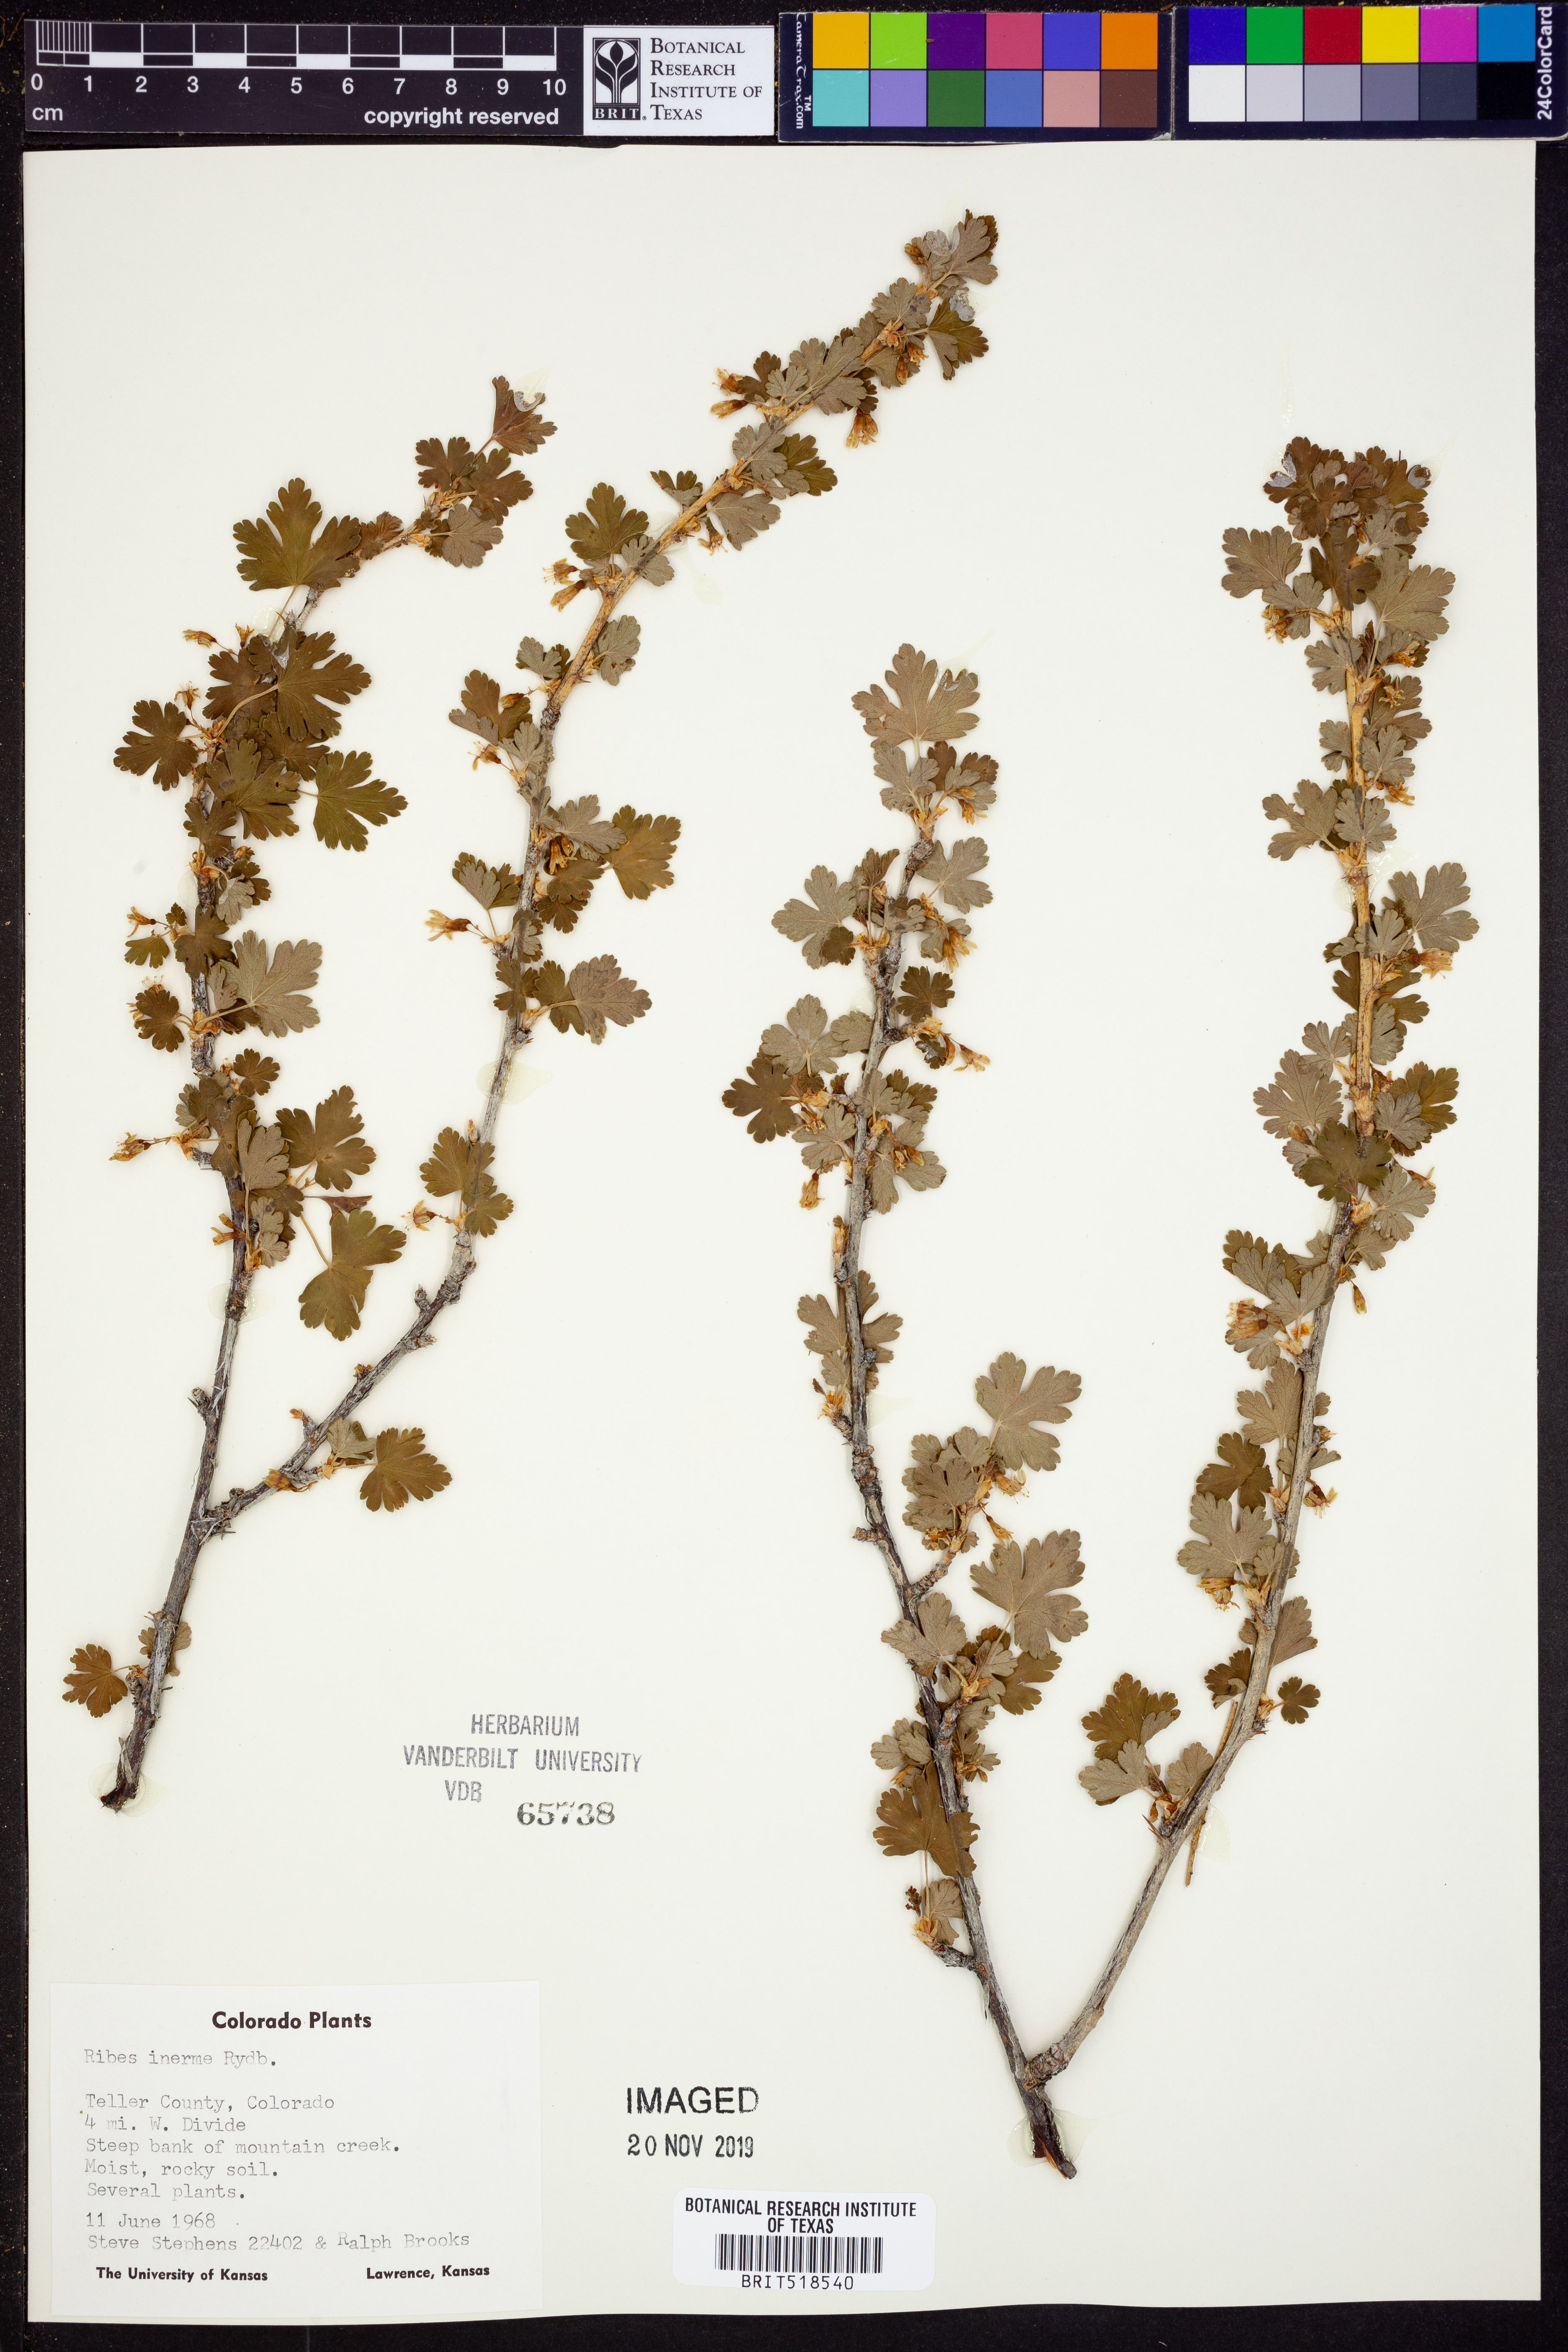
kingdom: Plantae
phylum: Tracheophyta
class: Magnoliopsida
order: Saxifragales
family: Grossulariaceae
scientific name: Grossulariaceae
